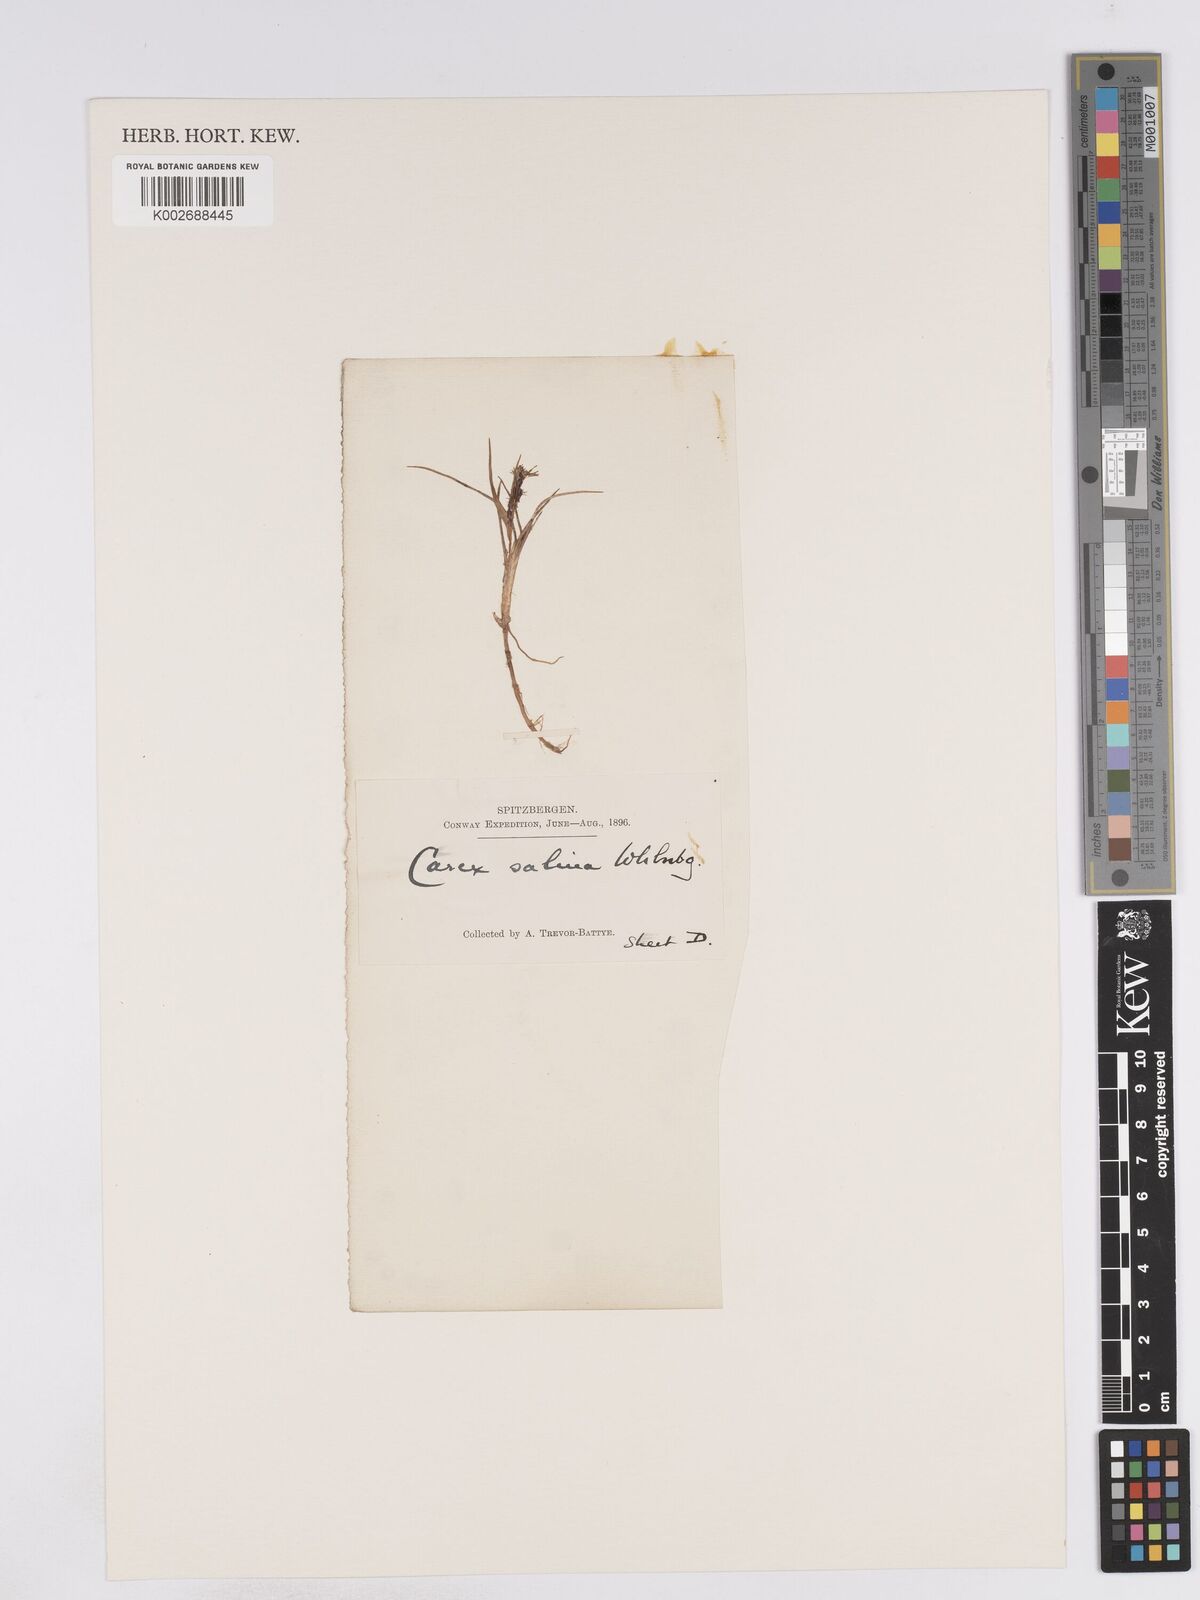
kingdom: Plantae
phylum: Tracheophyta
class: Liliopsida
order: Poales
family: Cyperaceae
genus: Carex
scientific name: Carex subspathacea
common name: Hoppner's sedge
